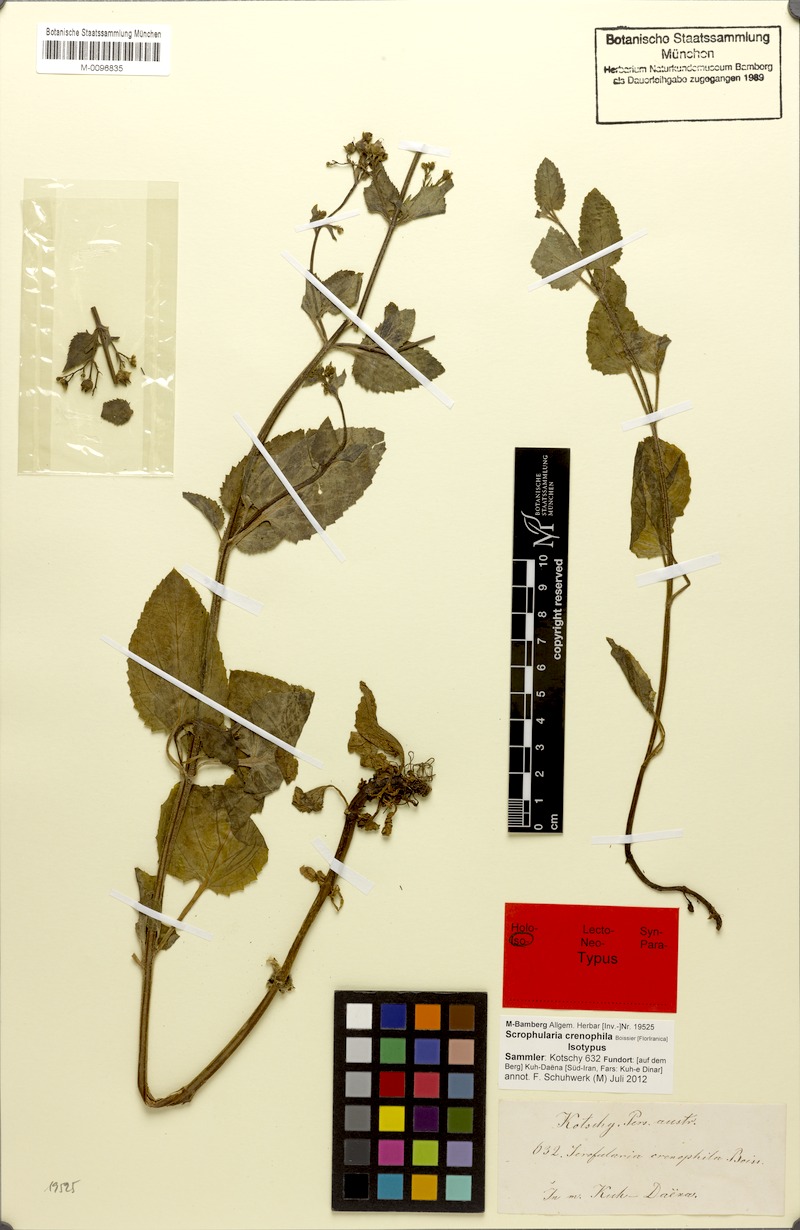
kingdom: Plantae
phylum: Tracheophyta
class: Magnoliopsida
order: Lamiales
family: Scrophulariaceae
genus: Scrophularia
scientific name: Scrophularia crenophila
